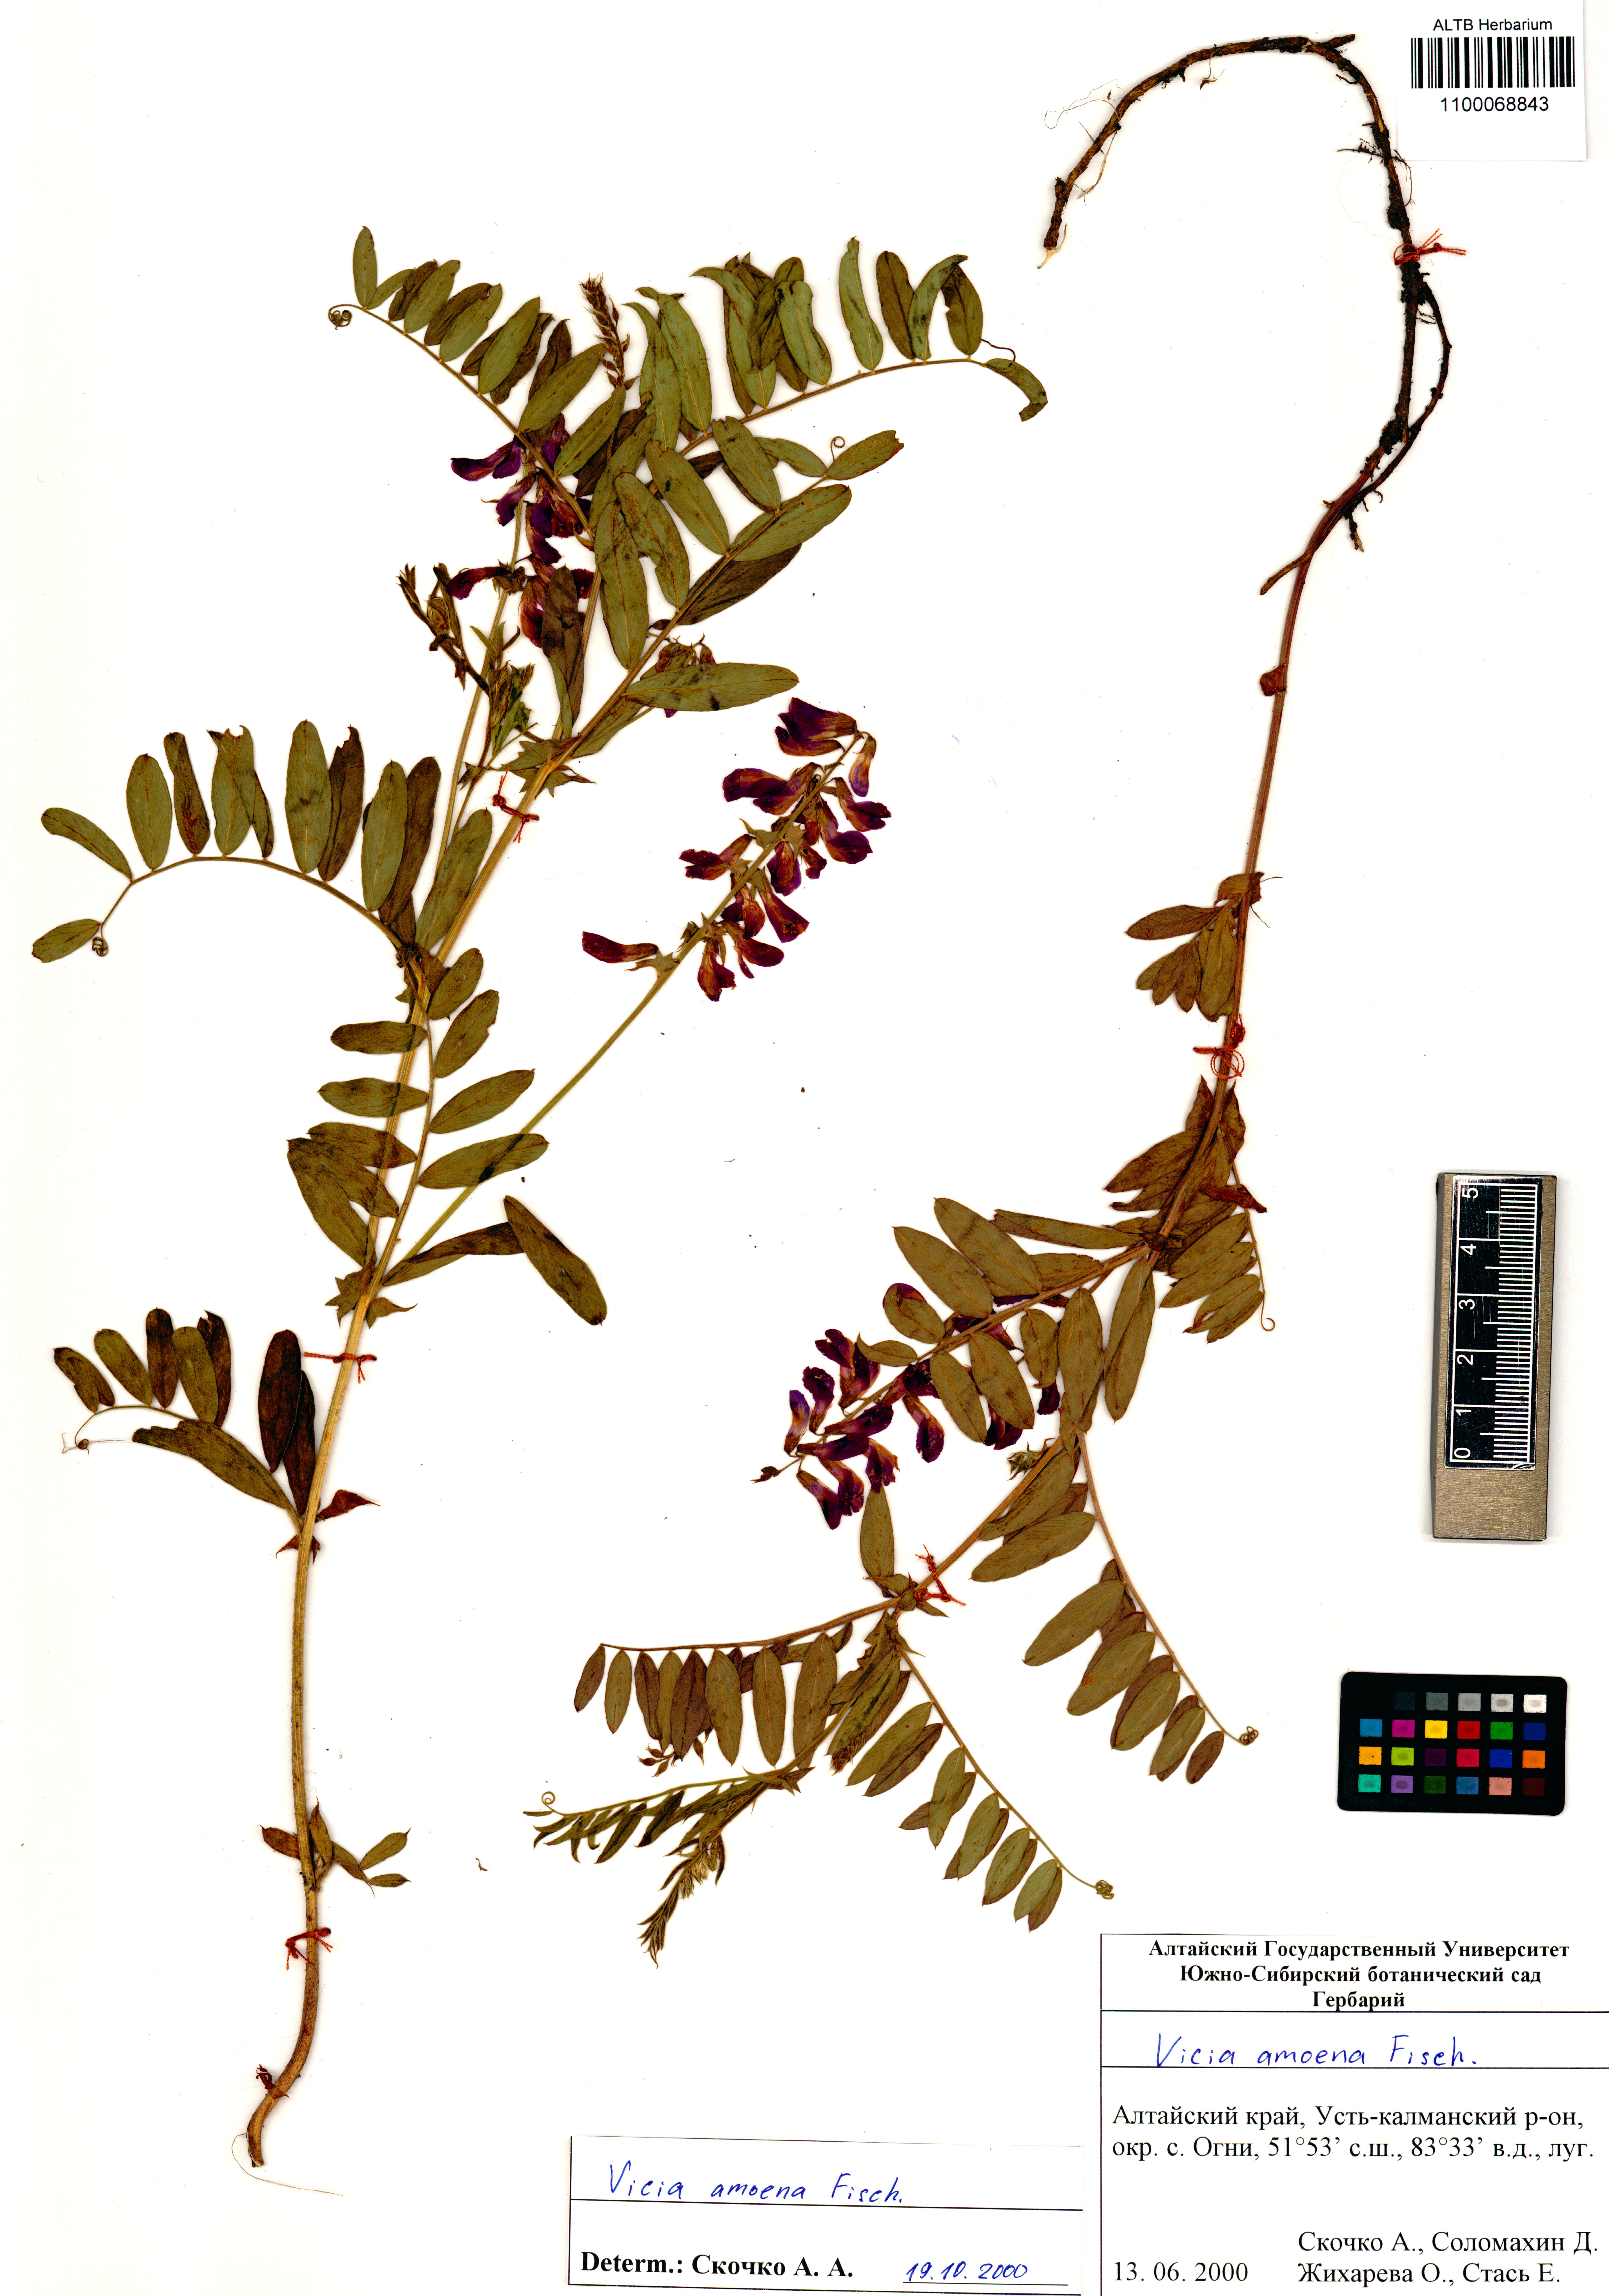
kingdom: Plantae
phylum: Tracheophyta
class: Magnoliopsida
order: Fabales
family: Fabaceae
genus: Vicia
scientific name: Vicia amoena
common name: Cheder ebs
